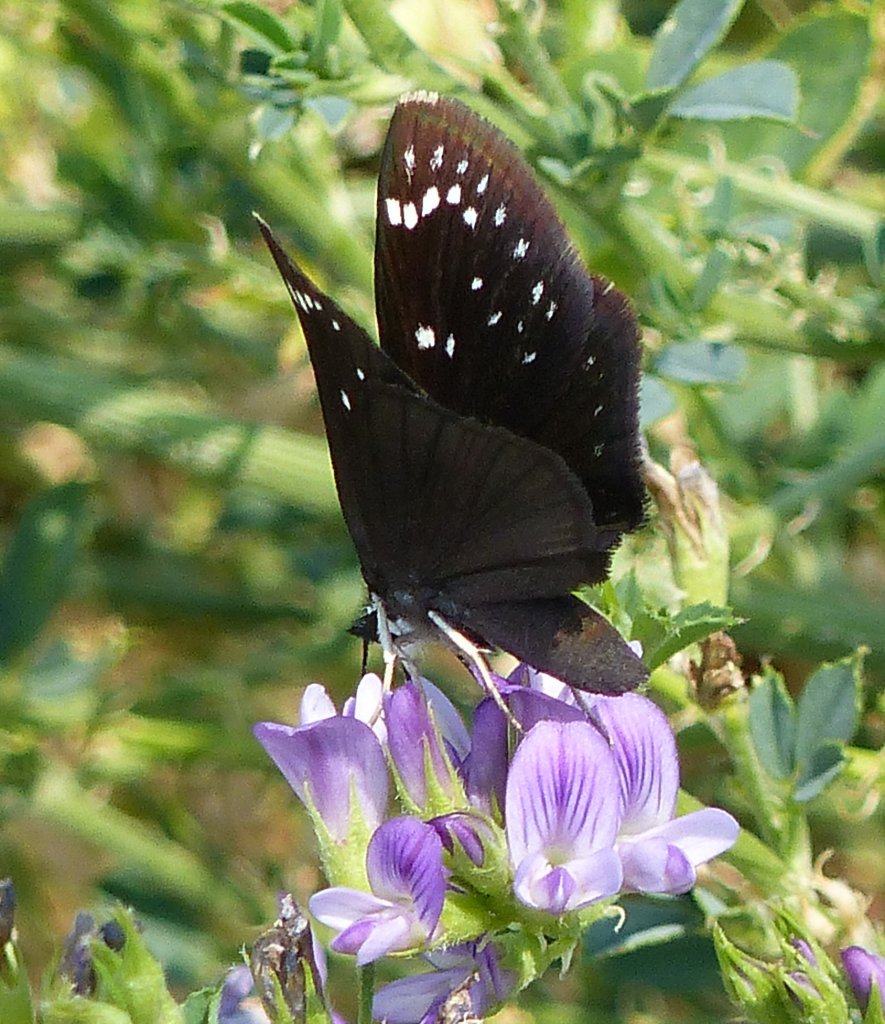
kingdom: Animalia
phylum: Arthropoda
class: Insecta
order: Lepidoptera
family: Hesperiidae
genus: Pholisora
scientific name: Pholisora catullus
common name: Common Sootywing
